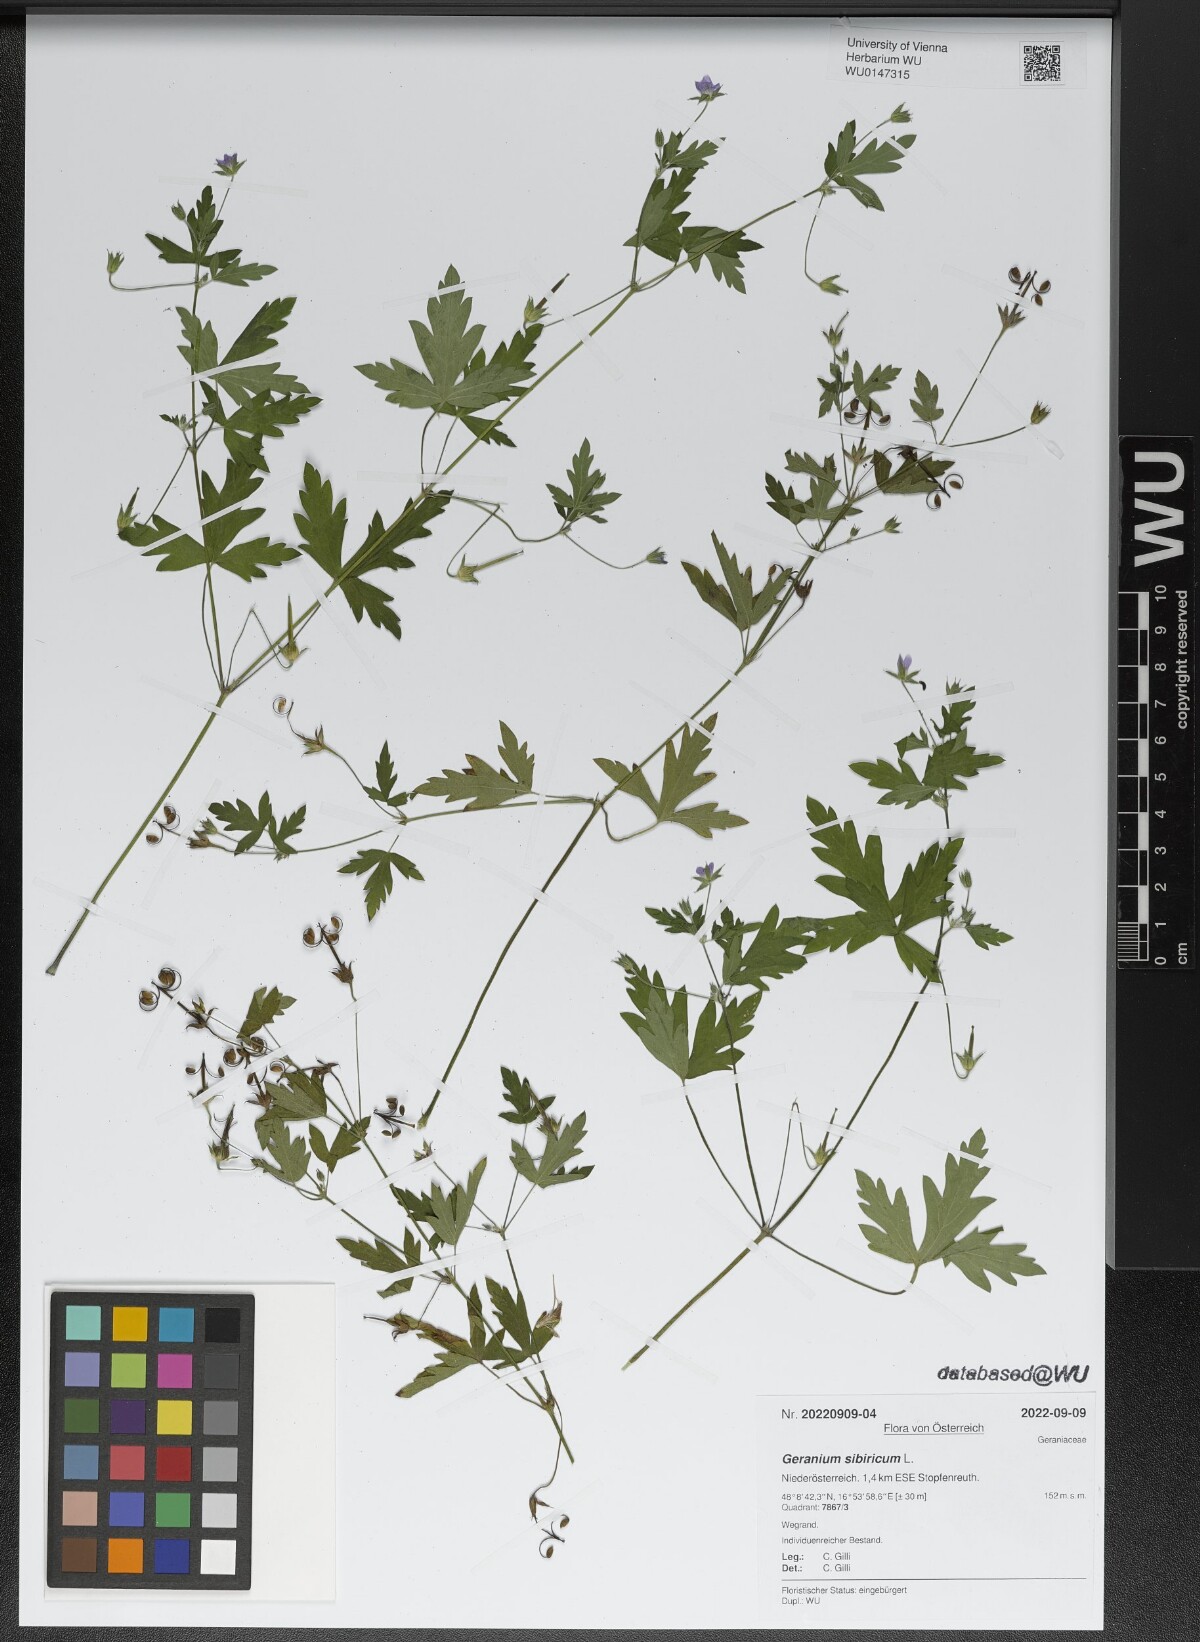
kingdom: Plantae
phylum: Tracheophyta
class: Magnoliopsida
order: Geraniales
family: Geraniaceae
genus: Geranium
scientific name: Geranium sibiricum
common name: Siberian crane's-bill
